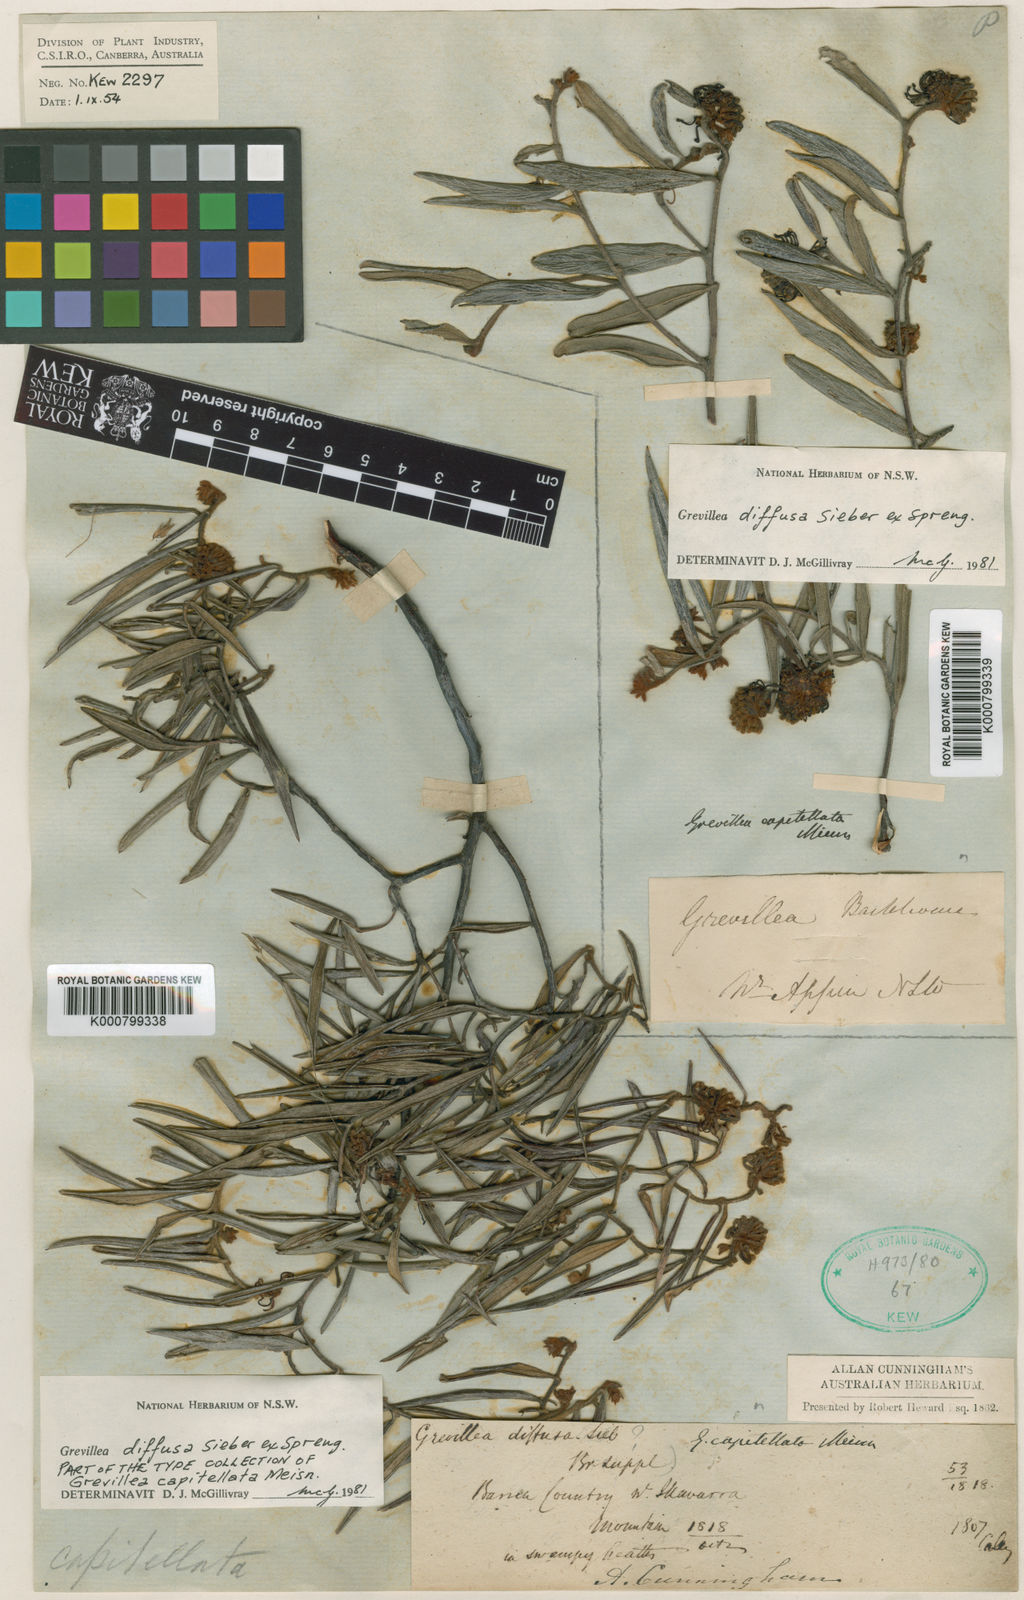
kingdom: Plantae
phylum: Tracheophyta
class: Magnoliopsida
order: Proteales
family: Proteaceae
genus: Grevillea
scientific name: Grevillea capitellata
